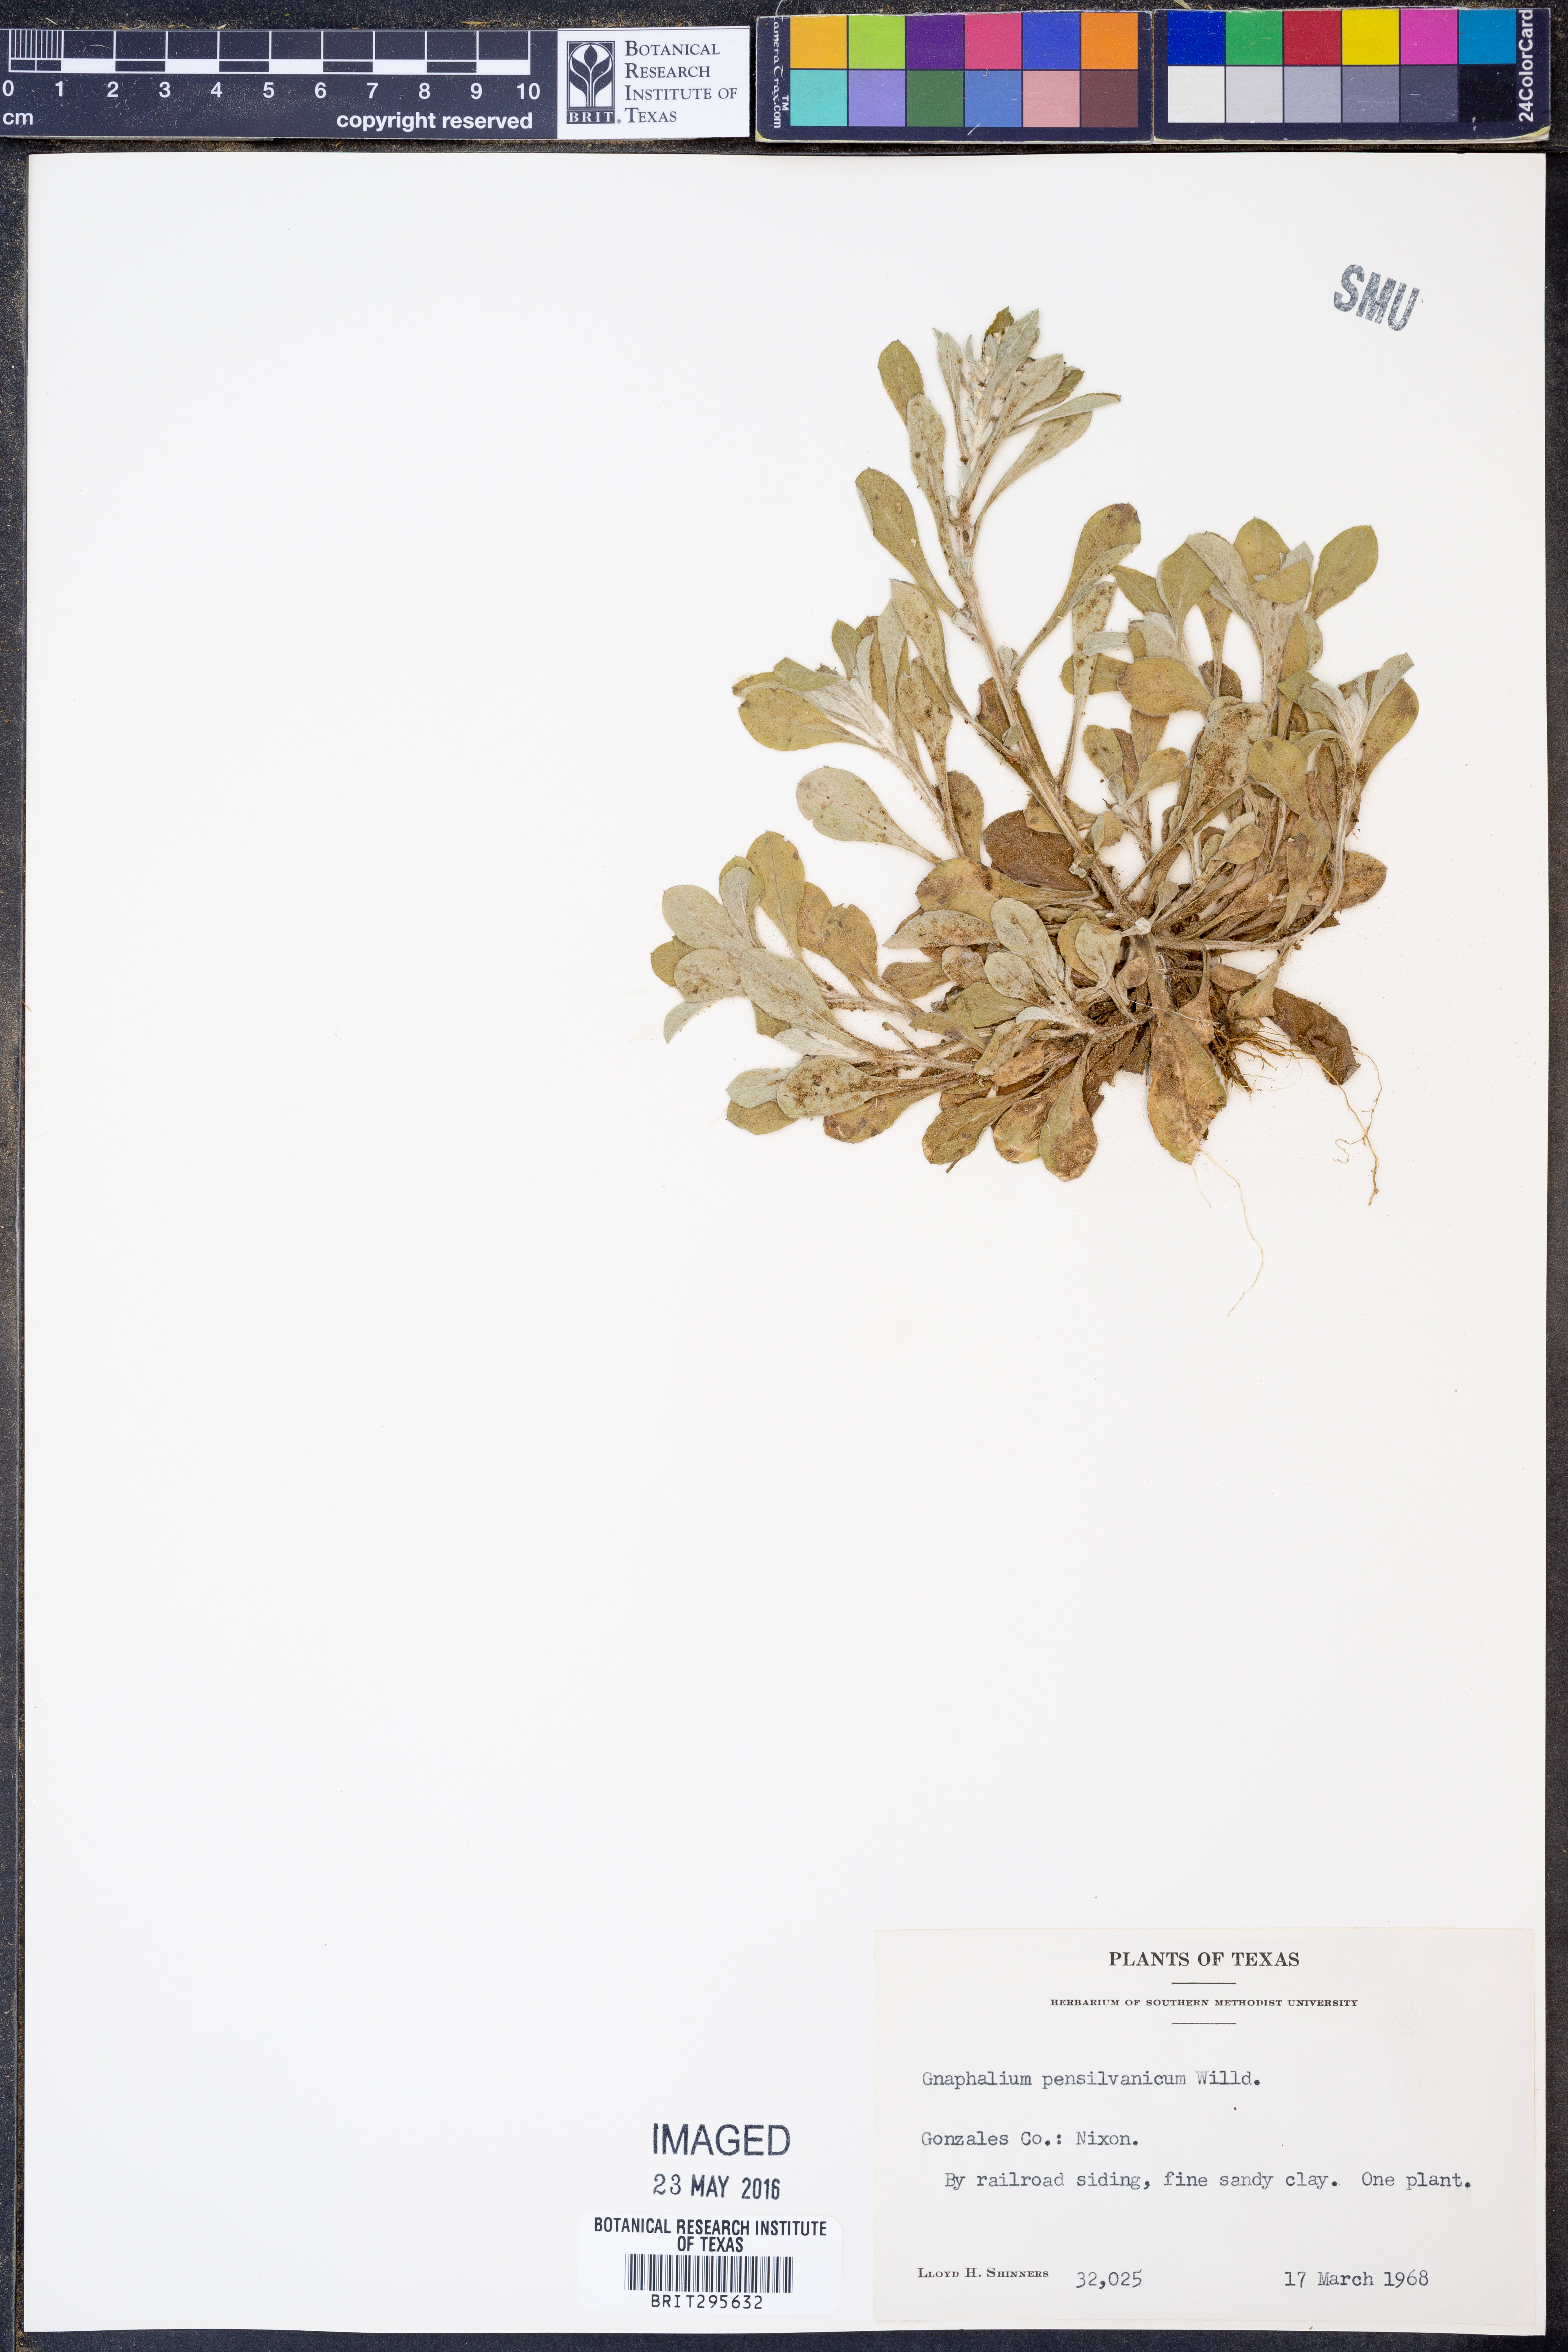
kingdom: Plantae
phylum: Tracheophyta
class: Magnoliopsida
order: Asterales
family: Asteraceae
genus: Gamochaeta
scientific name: Gamochaeta pensylvanica
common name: Pennsylvania everlasting
